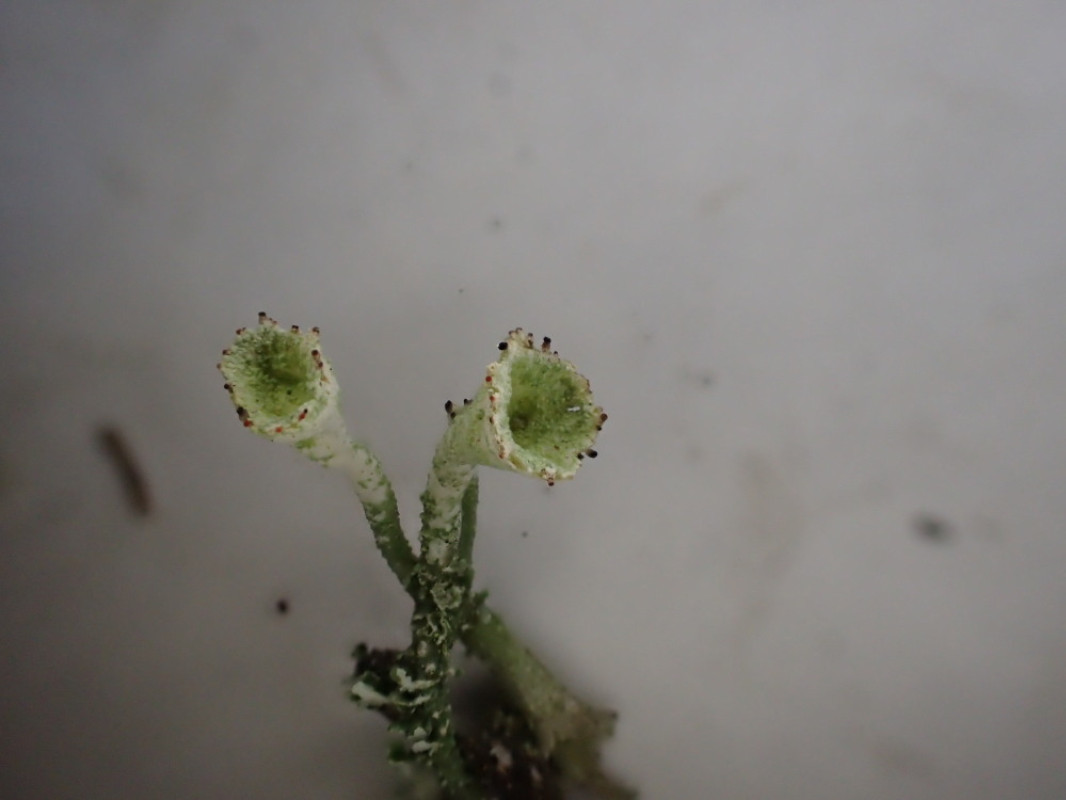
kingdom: Fungi
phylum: Ascomycota
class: Lecanoromycetes
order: Lecanorales
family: Cladoniaceae
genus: Cladonia
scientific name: Cladonia
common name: brungrøn bægerlav
